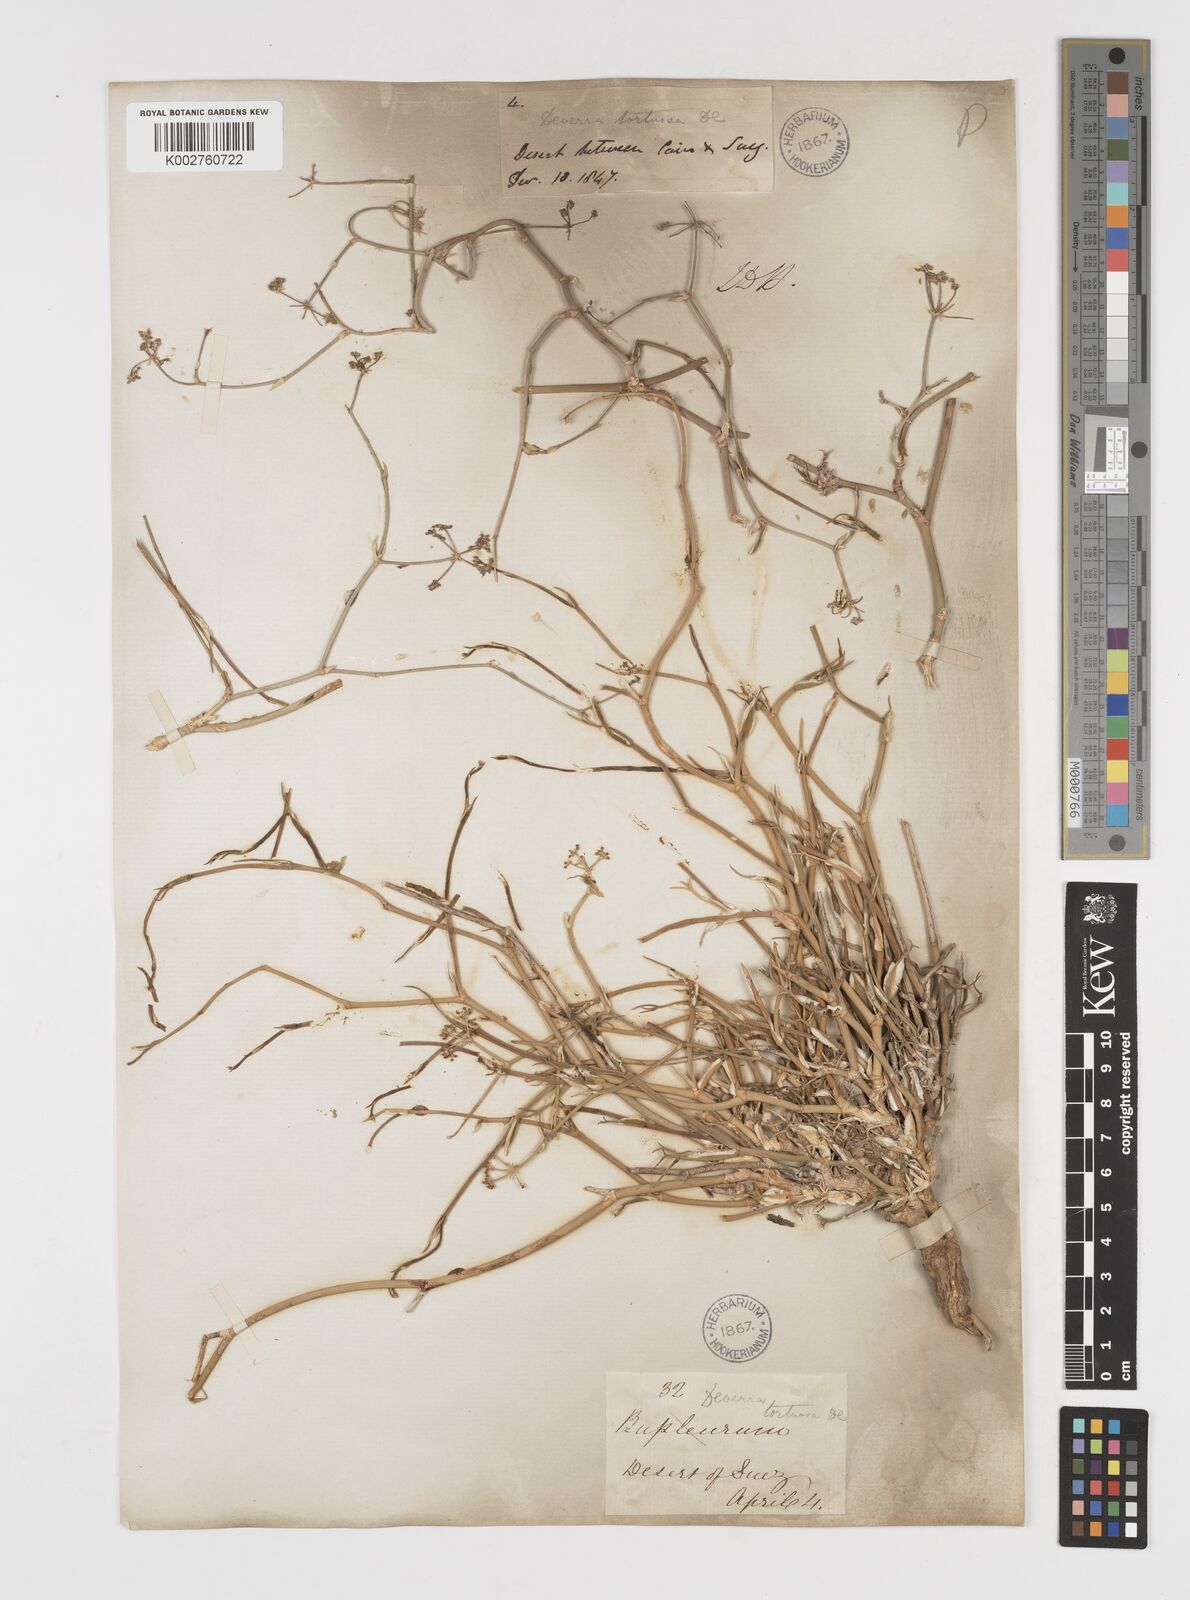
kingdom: Plantae
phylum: Tracheophyta
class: Magnoliopsida
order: Apiales
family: Apiaceae
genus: Deverra
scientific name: Deverra tortuosa
